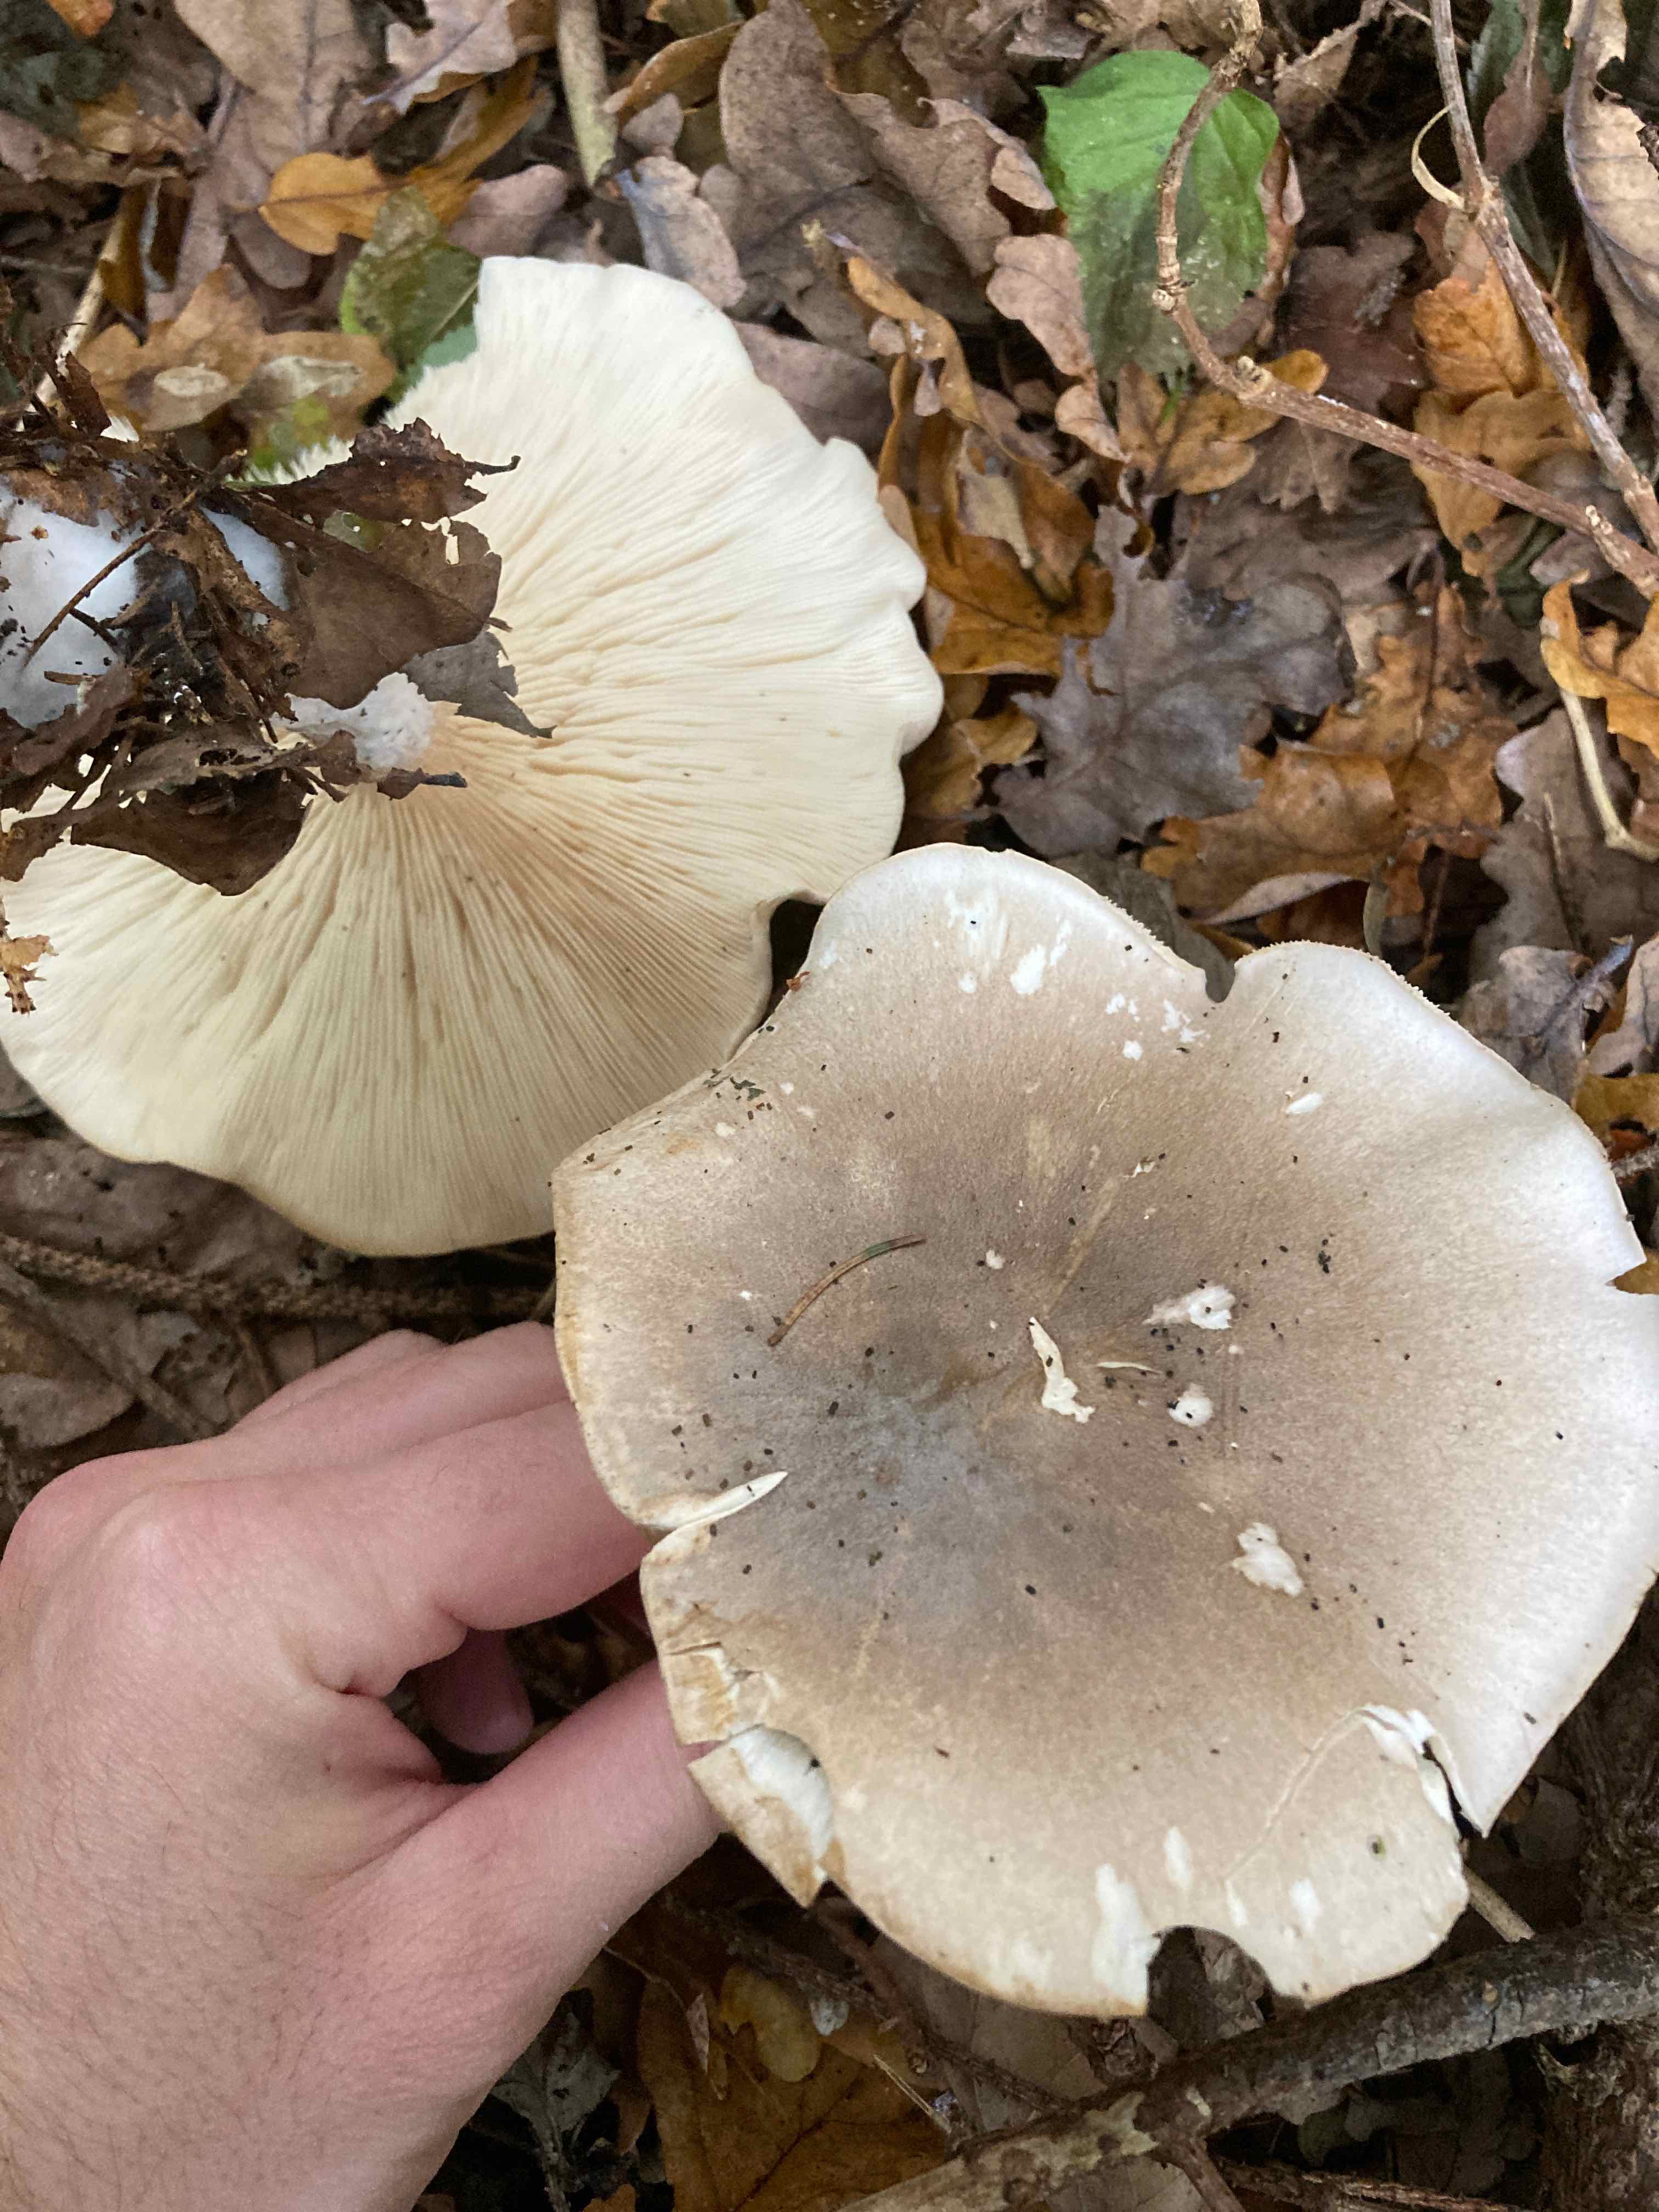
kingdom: Fungi
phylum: Basidiomycota
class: Agaricomycetes
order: Agaricales
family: Tricholomataceae
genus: Clitocybe
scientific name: Clitocybe nebularis
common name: tåge-tragthat
